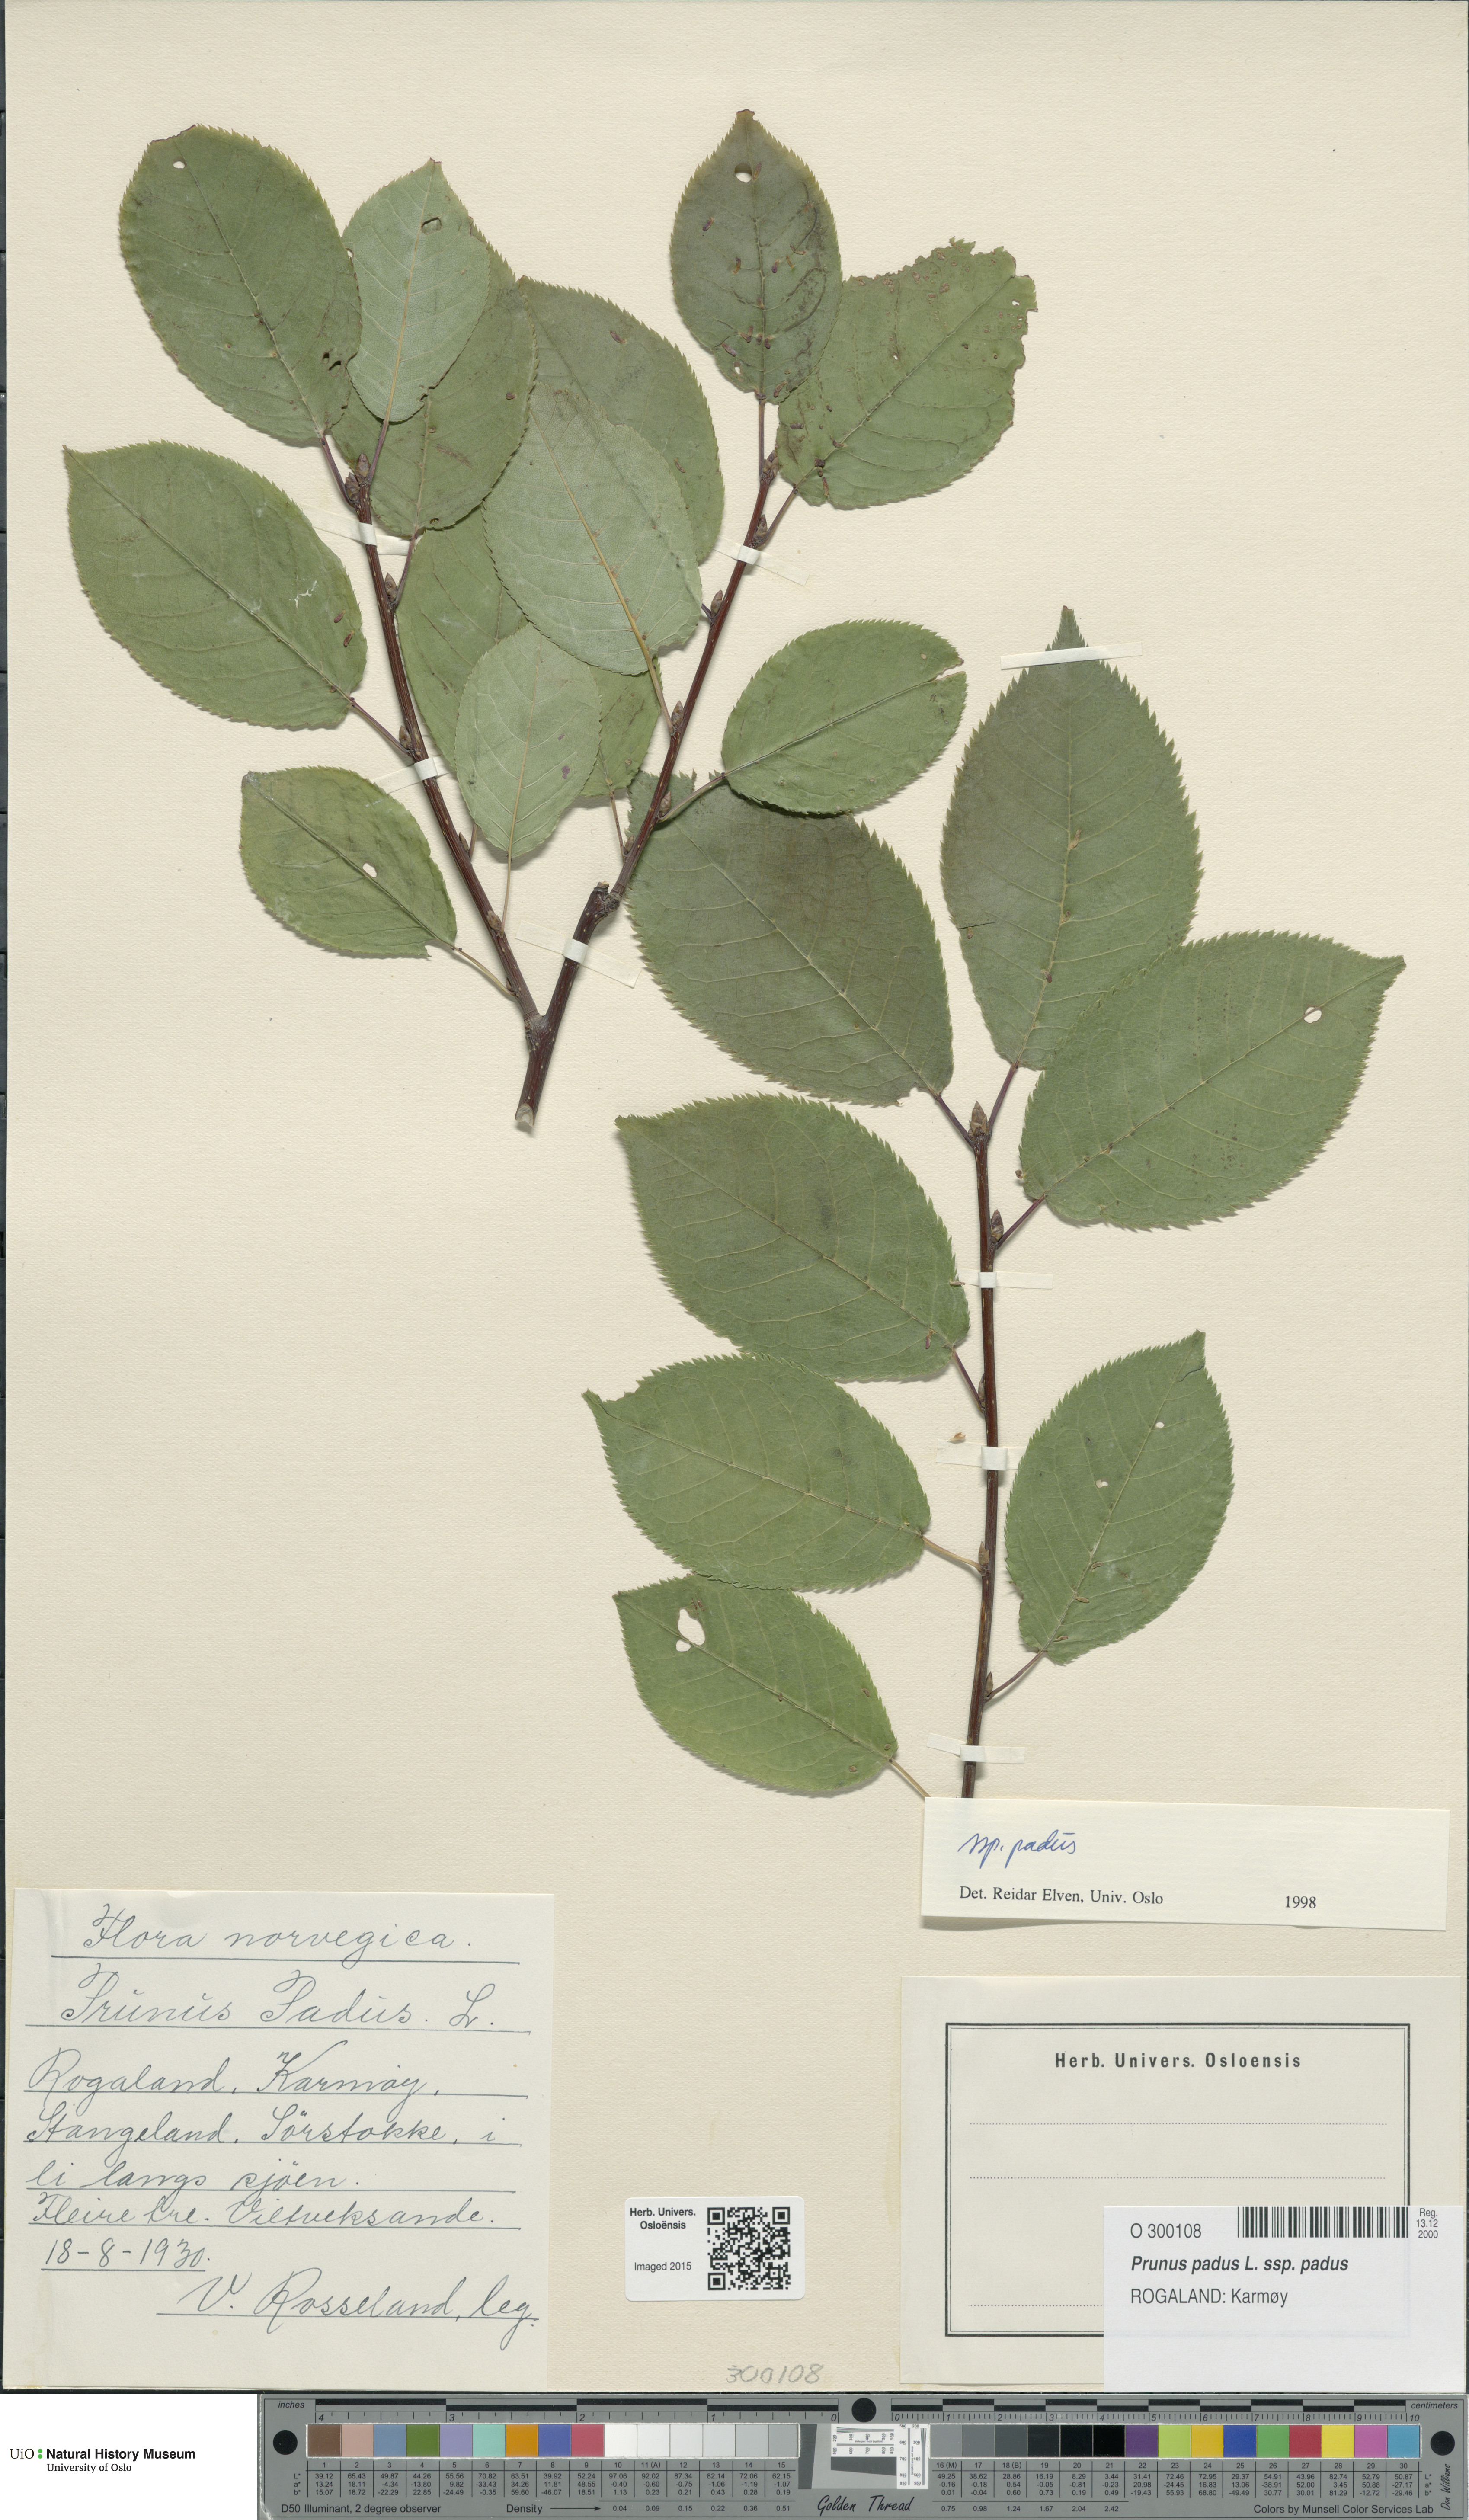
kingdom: Plantae
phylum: Tracheophyta
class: Magnoliopsida
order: Rosales
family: Rosaceae
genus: Prunus
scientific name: Prunus padus
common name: Bird cherry
